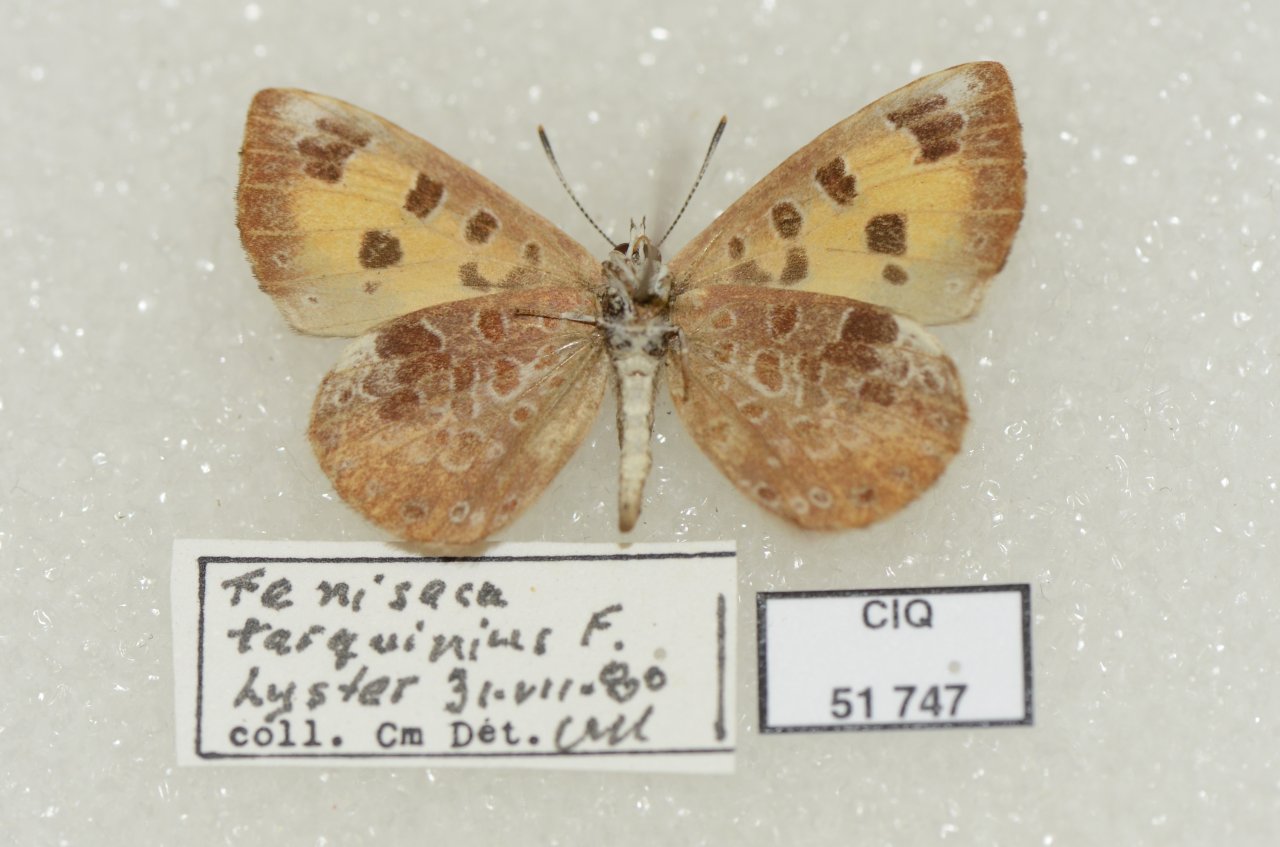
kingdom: Animalia
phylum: Arthropoda
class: Insecta
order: Lepidoptera
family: Lycaenidae
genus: Feniseca
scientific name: Feniseca tarquinius
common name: Harvester
